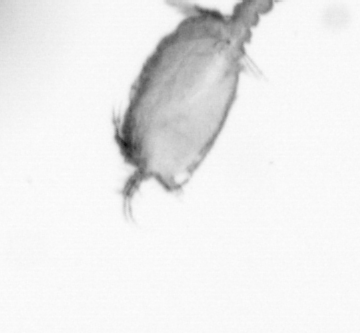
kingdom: Animalia
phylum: Arthropoda
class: Copepoda
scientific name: Copepoda
